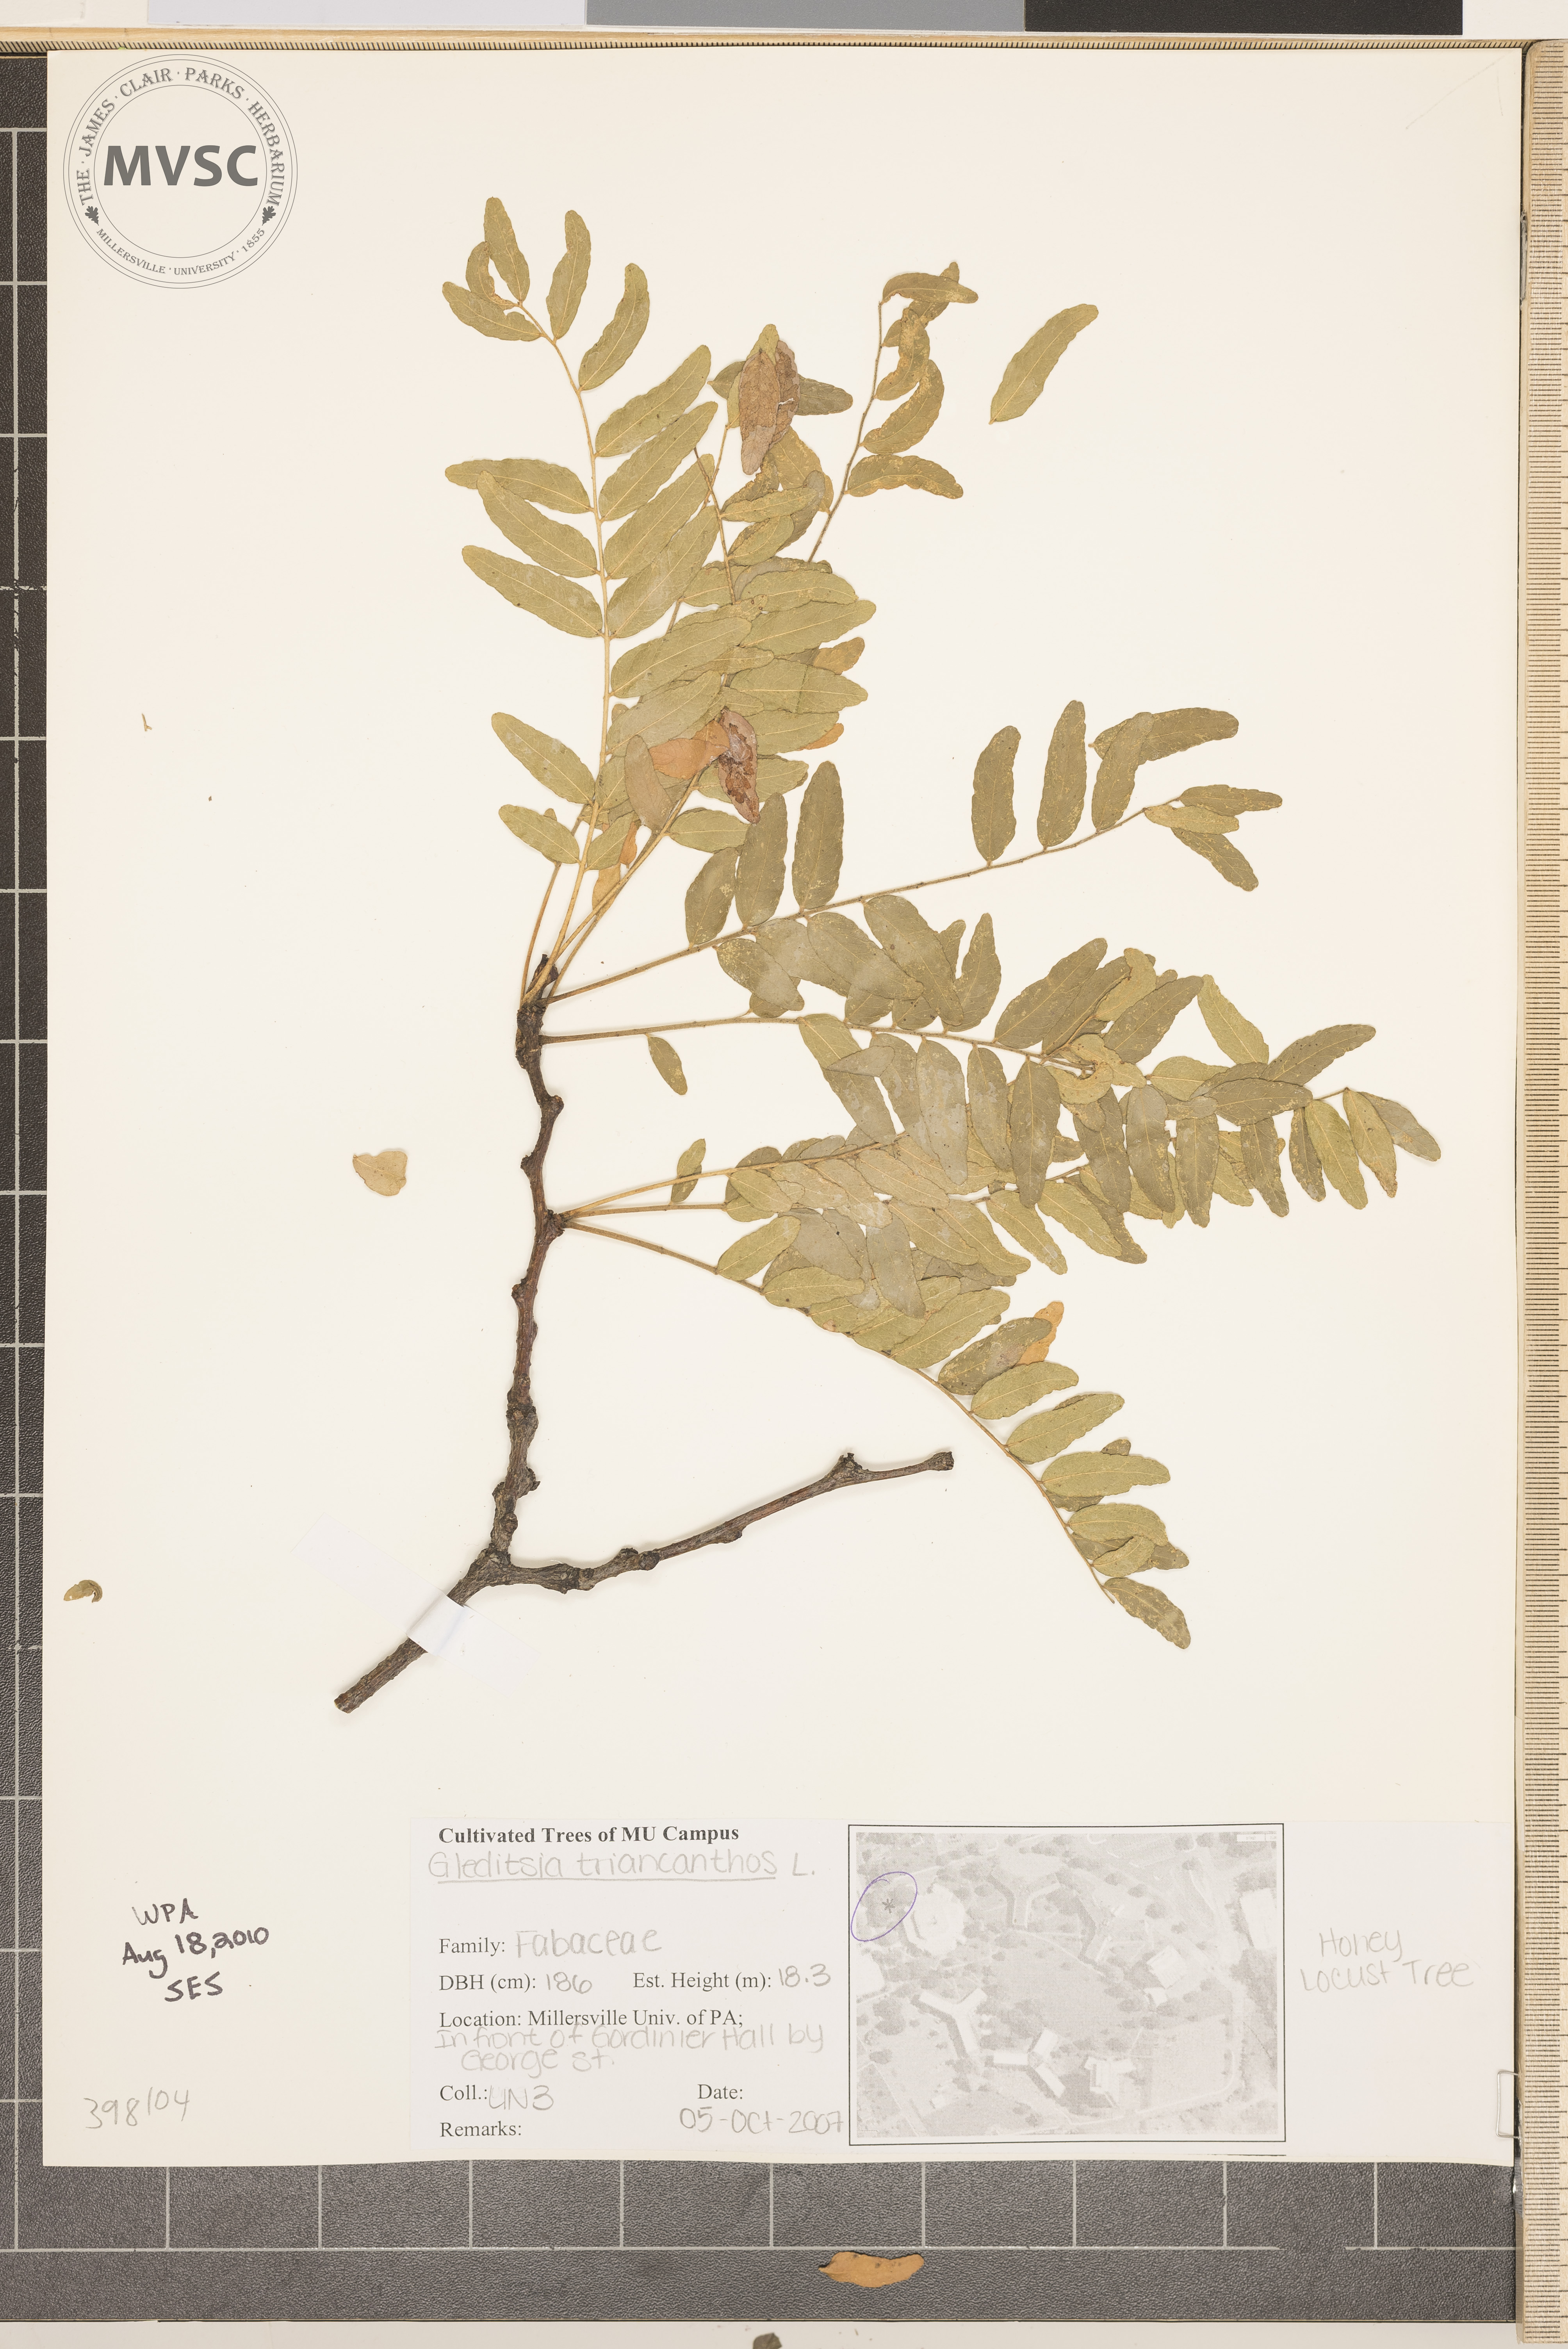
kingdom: Plantae
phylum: Tracheophyta
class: Magnoliopsida
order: Fabales
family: Fabaceae
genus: Gleditsia
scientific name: Gleditsia triacanthos
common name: Honey-locust
